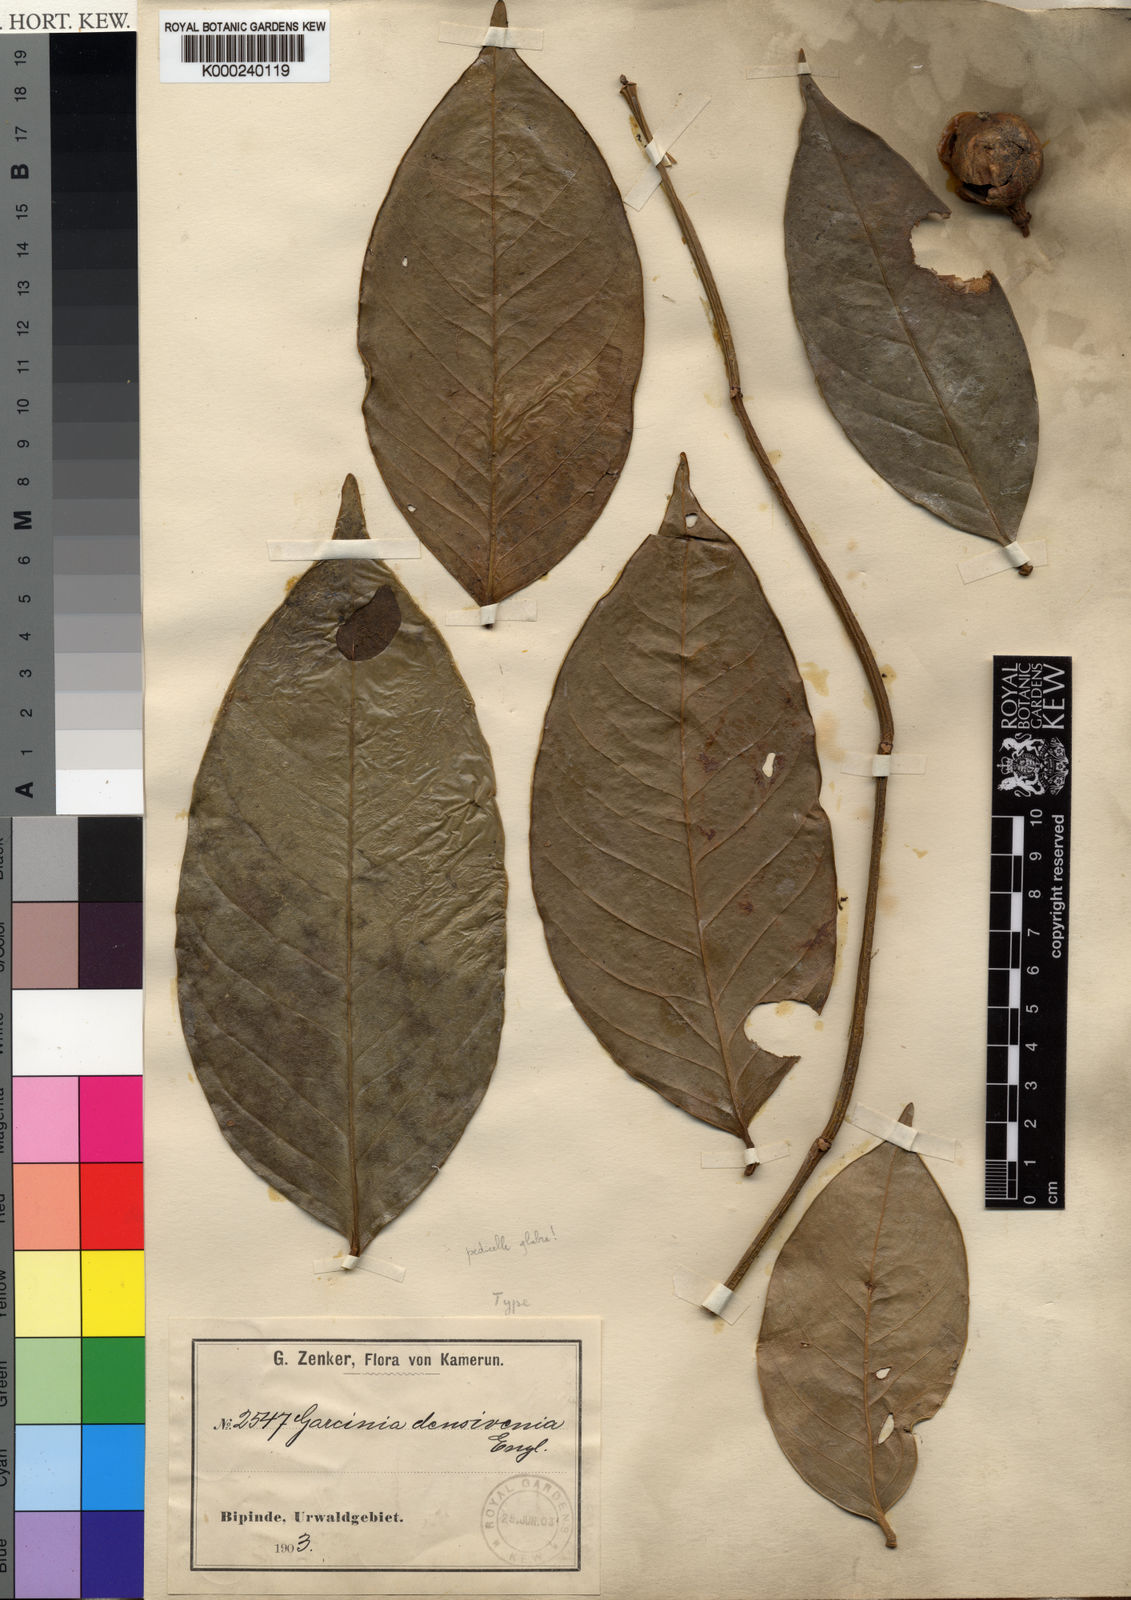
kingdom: Plantae
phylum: Tracheophyta
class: Magnoliopsida
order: Malpighiales
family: Clusiaceae
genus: Garcinia
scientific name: Garcinia densivenia
